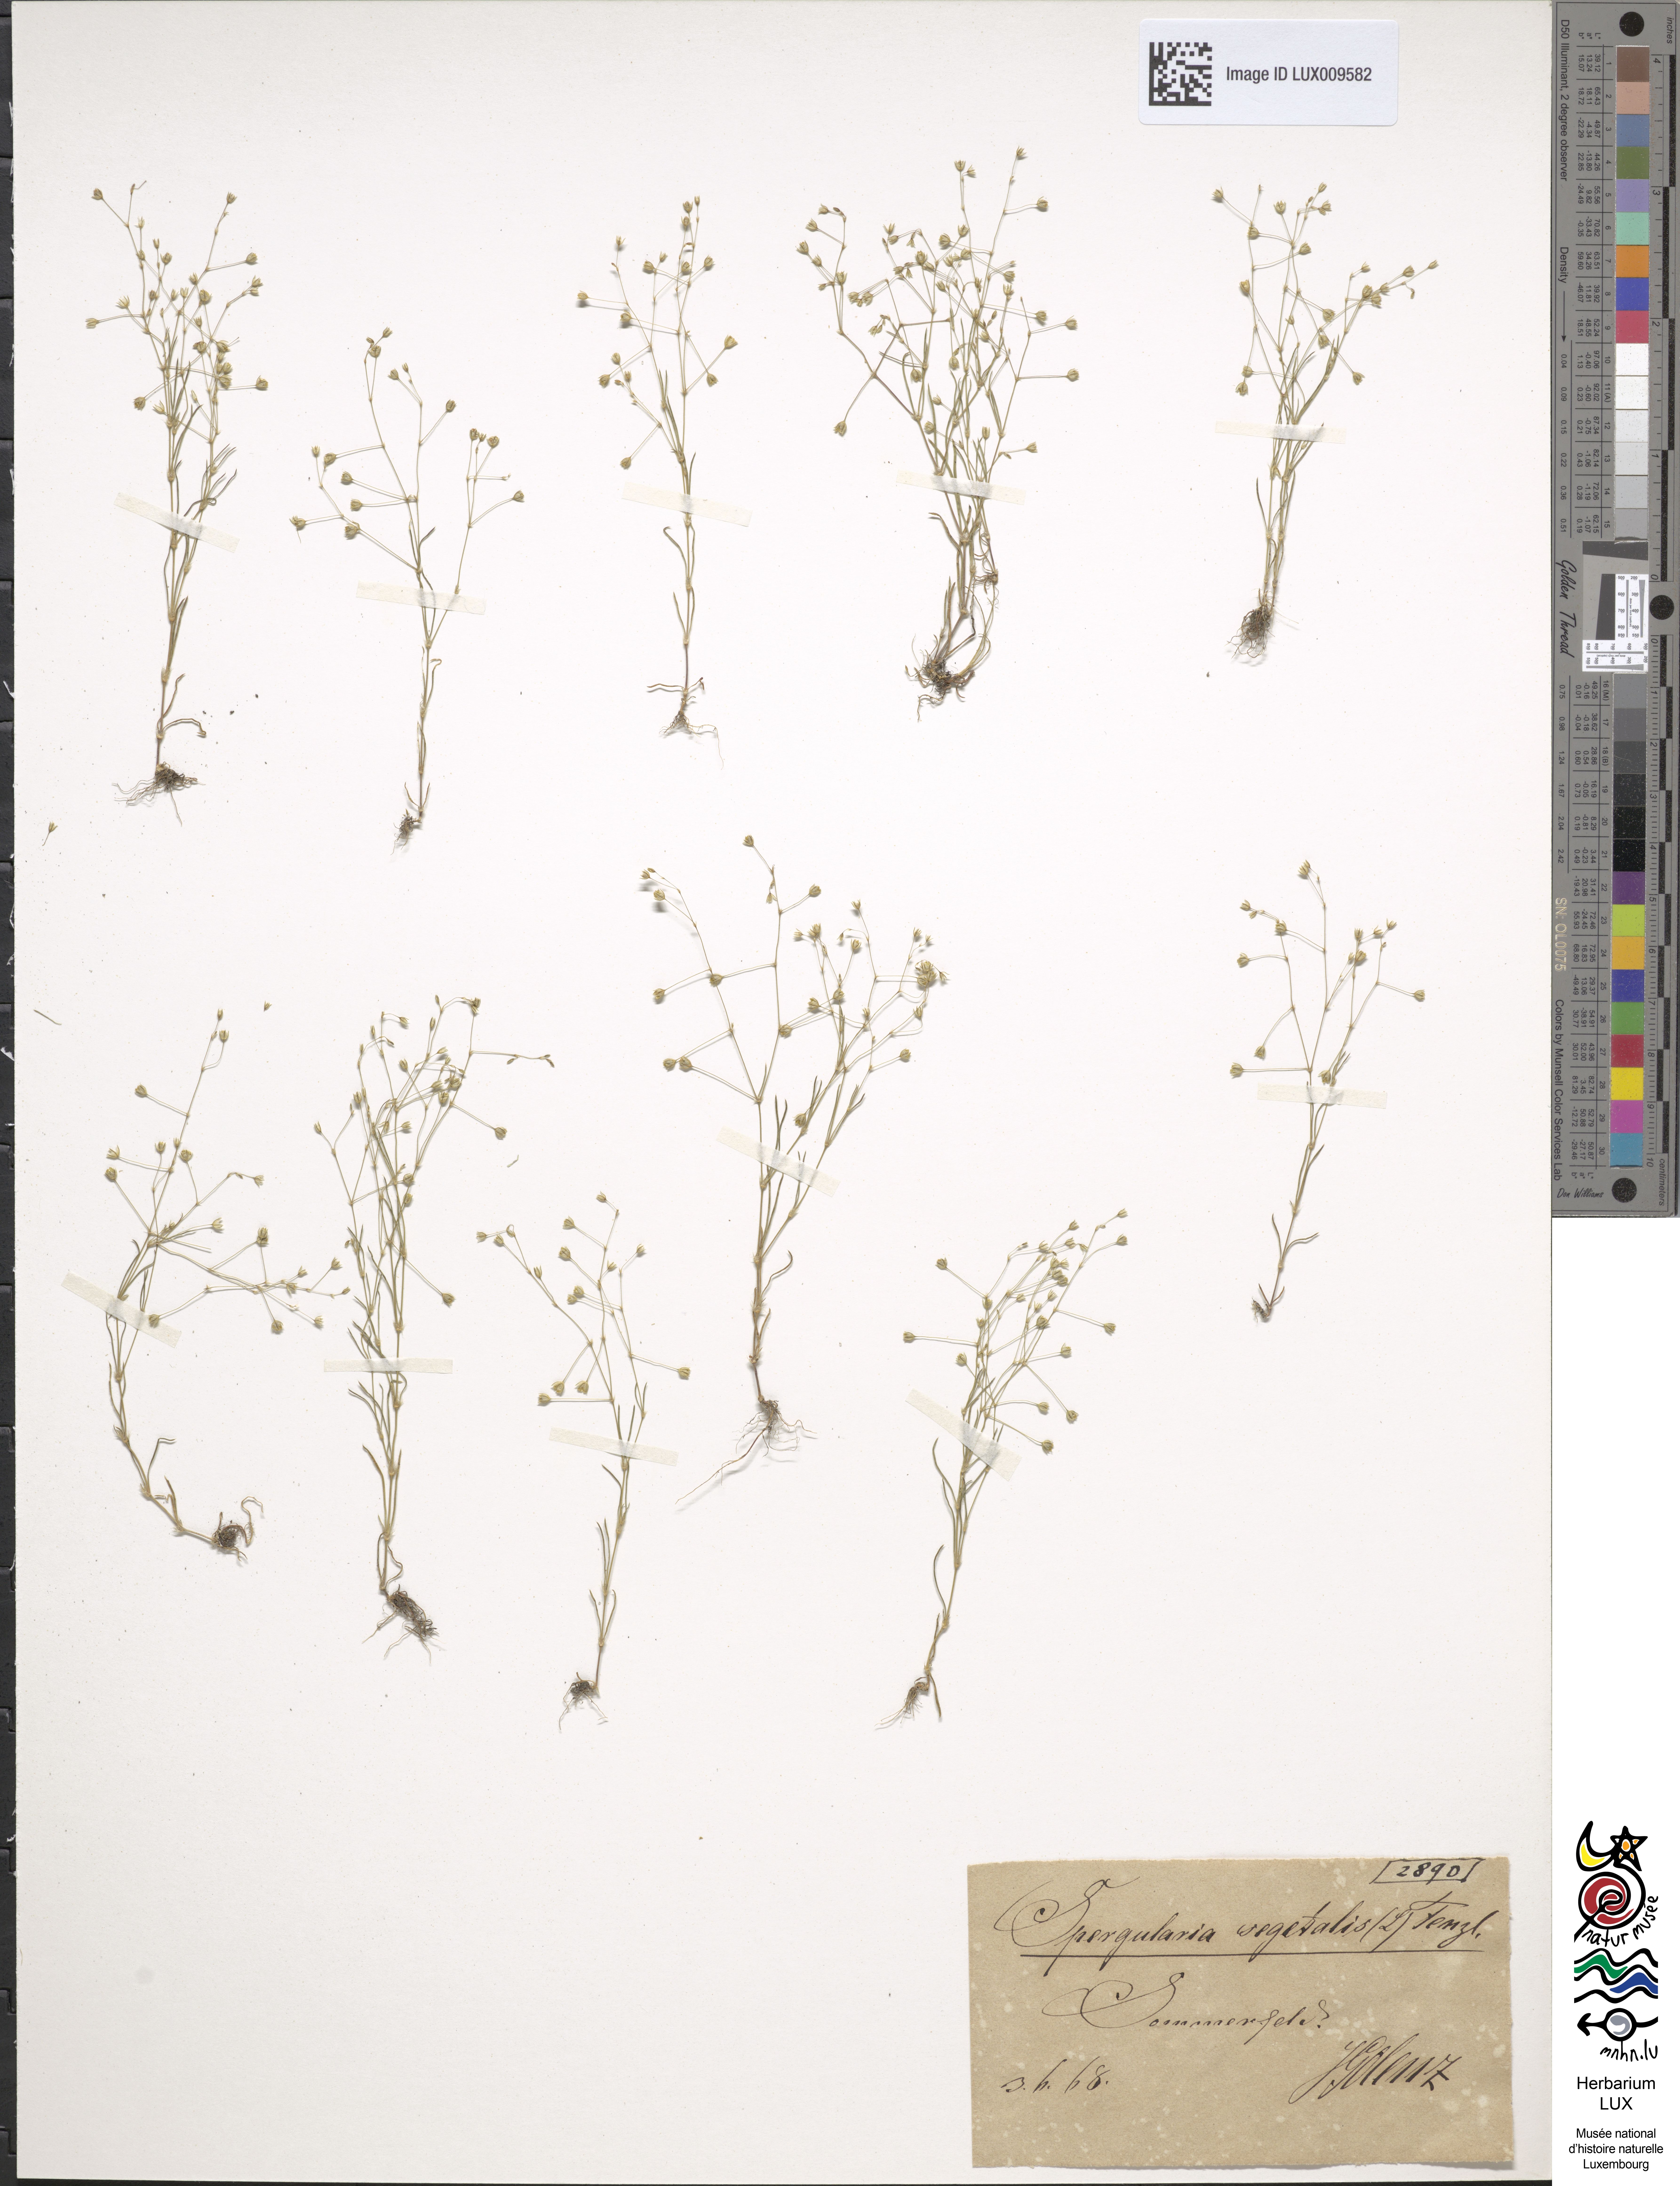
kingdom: Plantae
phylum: Tracheophyta
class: Magnoliopsida
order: Caryophyllales
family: Caryophyllaceae
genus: Spergularia
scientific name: Spergularia segetalis
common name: Corn sand spurrey
